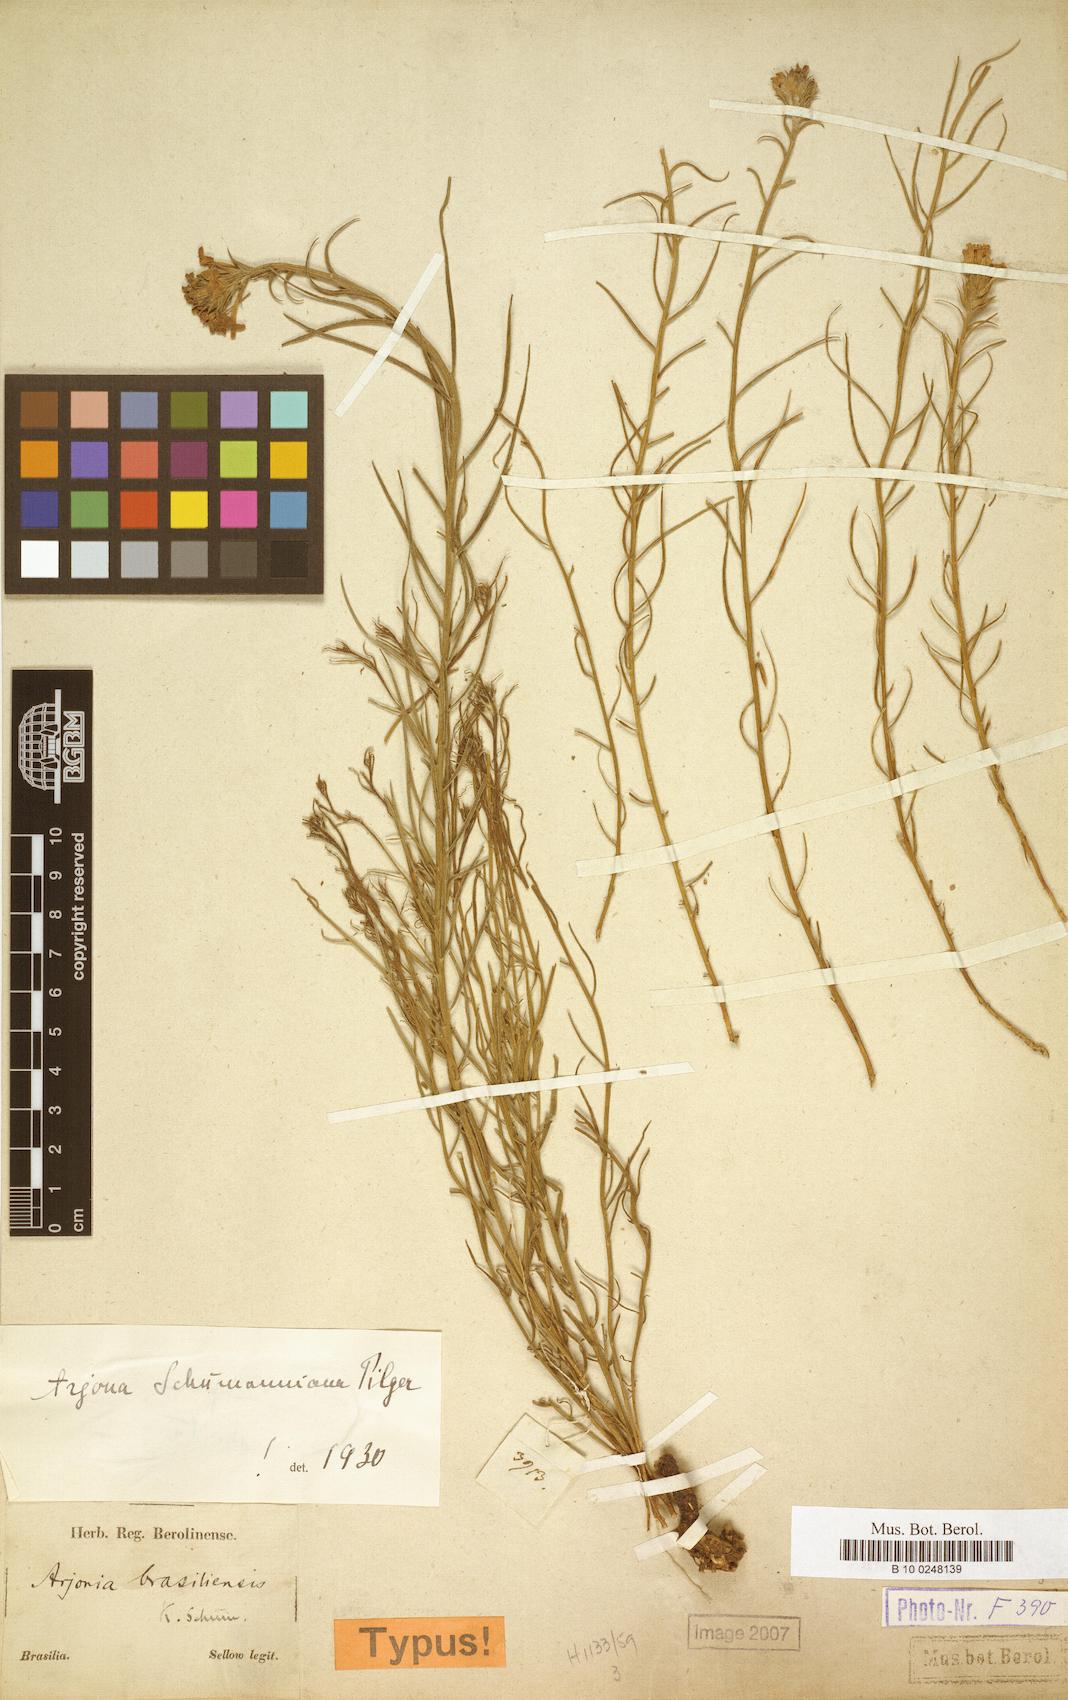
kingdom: Plantae
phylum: Tracheophyta
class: Magnoliopsida
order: Santalales
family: Schoepfiaceae
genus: Arjona
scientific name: Arjona megapotamica
